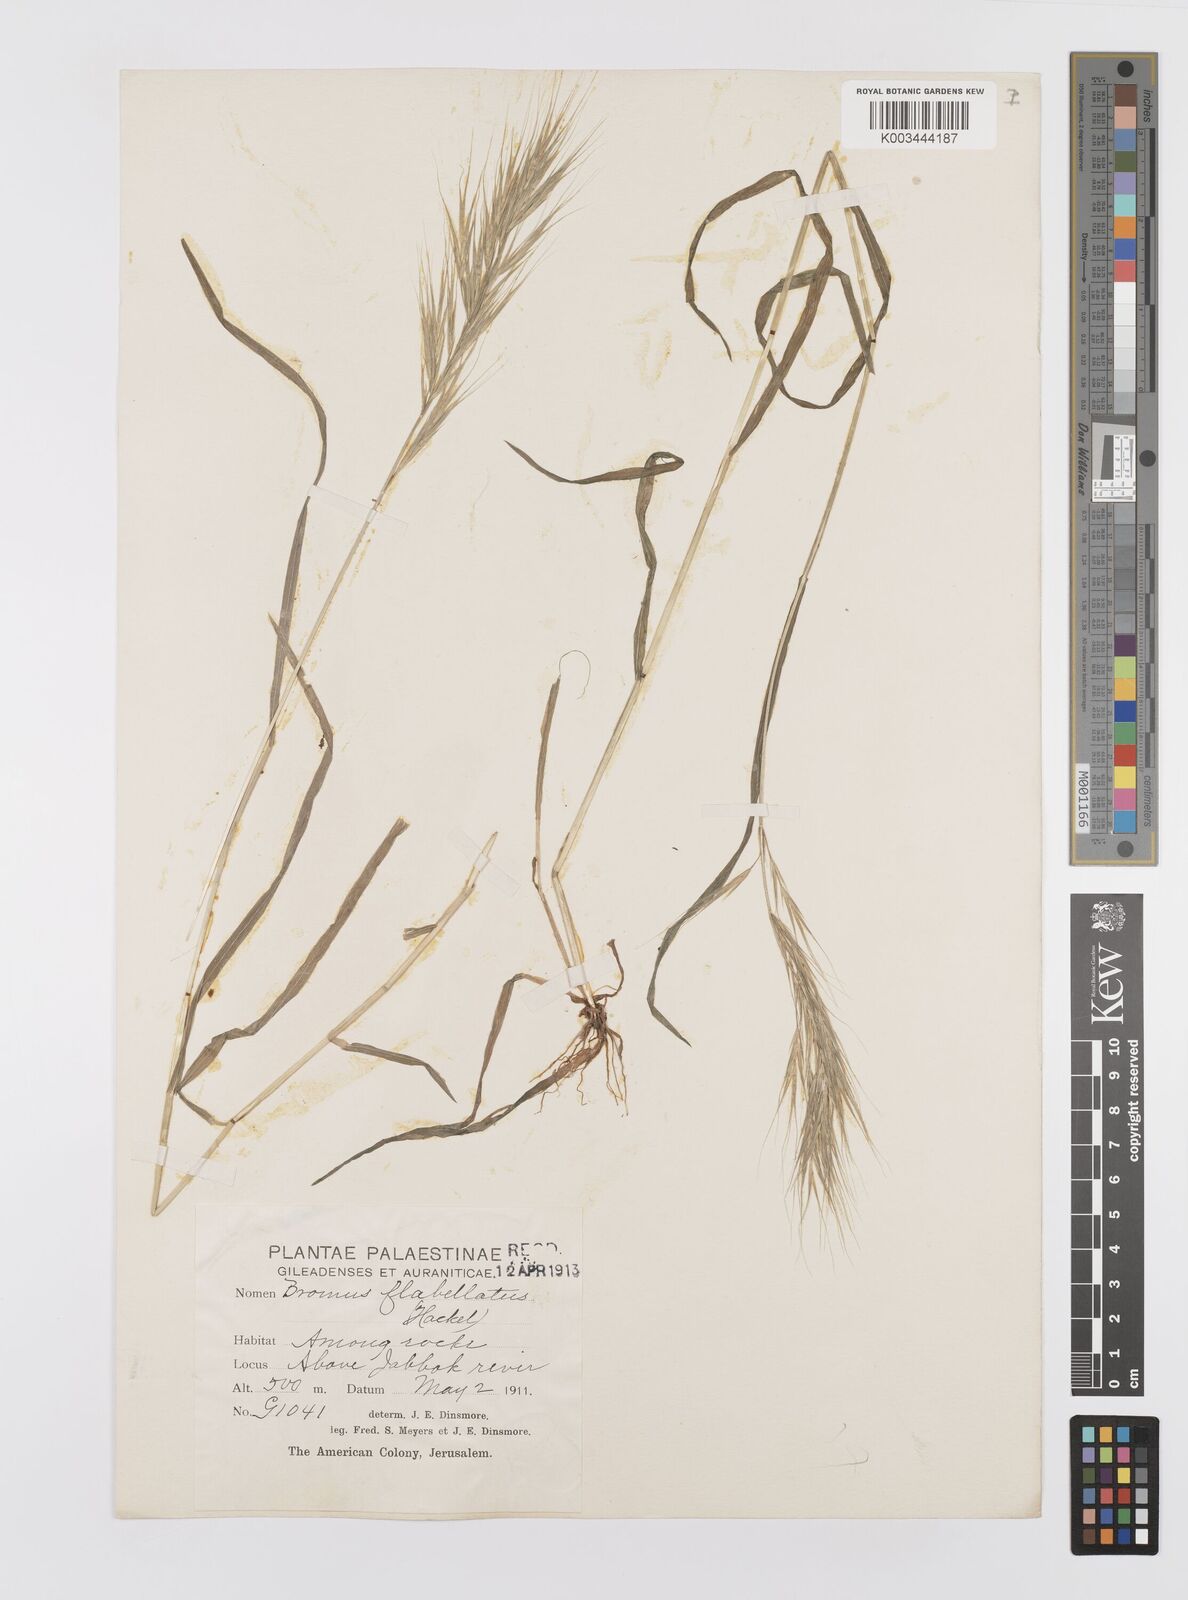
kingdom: Plantae
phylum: Tracheophyta
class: Liliopsida
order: Poales
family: Poaceae
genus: Bromus
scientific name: Bromus madritensis
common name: Compact brome
